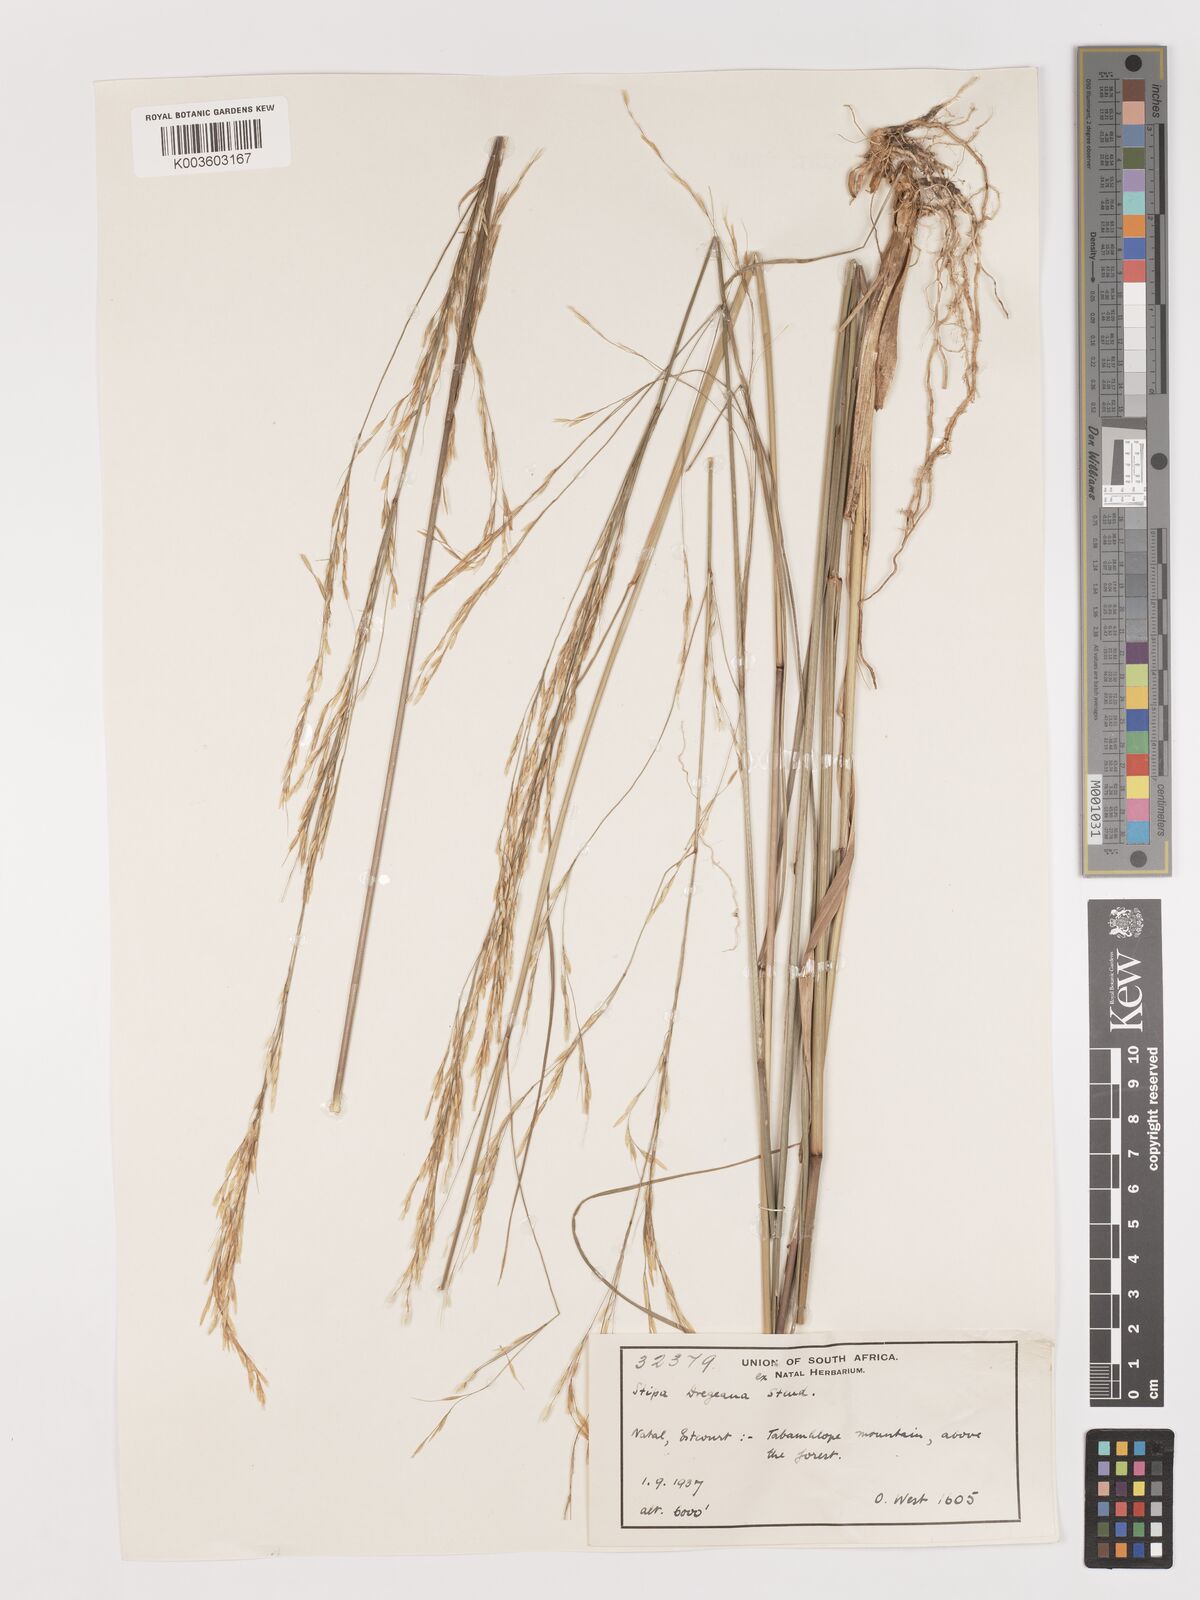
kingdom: Plantae
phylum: Tracheophyta
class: Liliopsida
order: Poales
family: Poaceae
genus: Stipa
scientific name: Stipa dregeana
